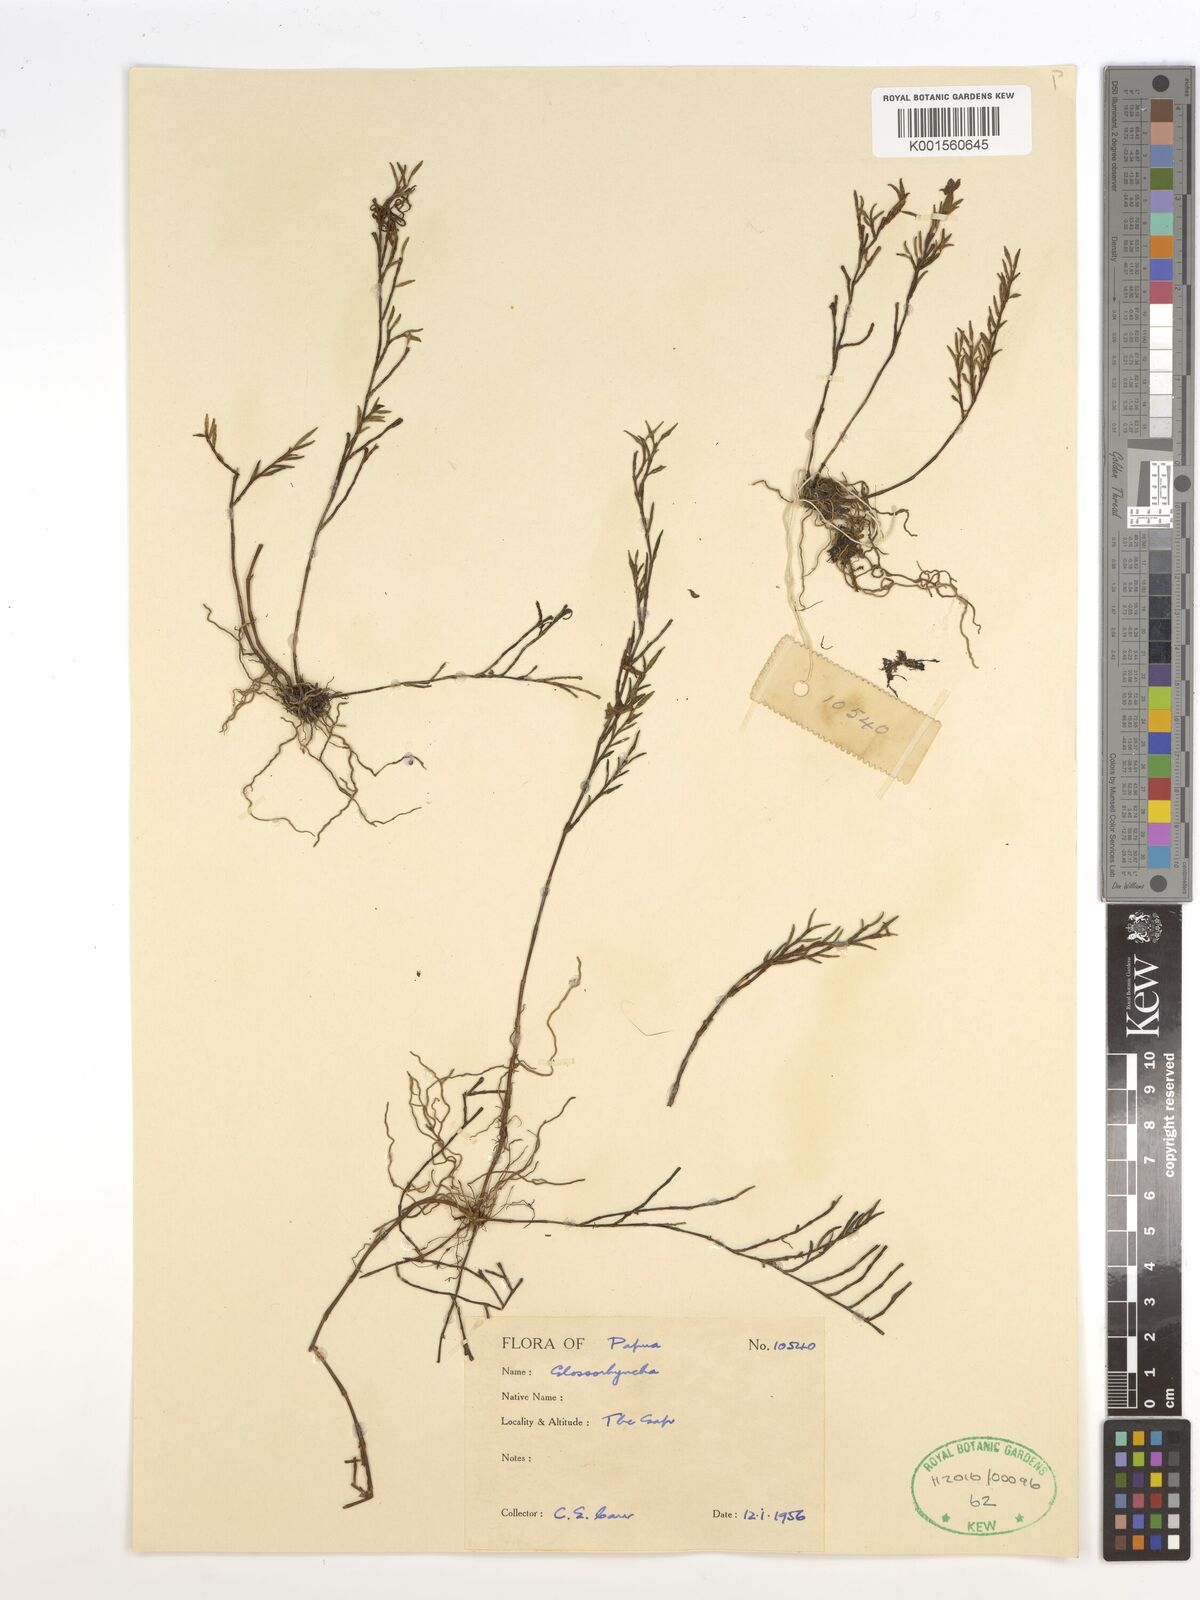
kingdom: Plantae
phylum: Tracheophyta
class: Liliopsida
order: Asparagales
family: Orchidaceae
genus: Glomera
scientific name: Glomera
